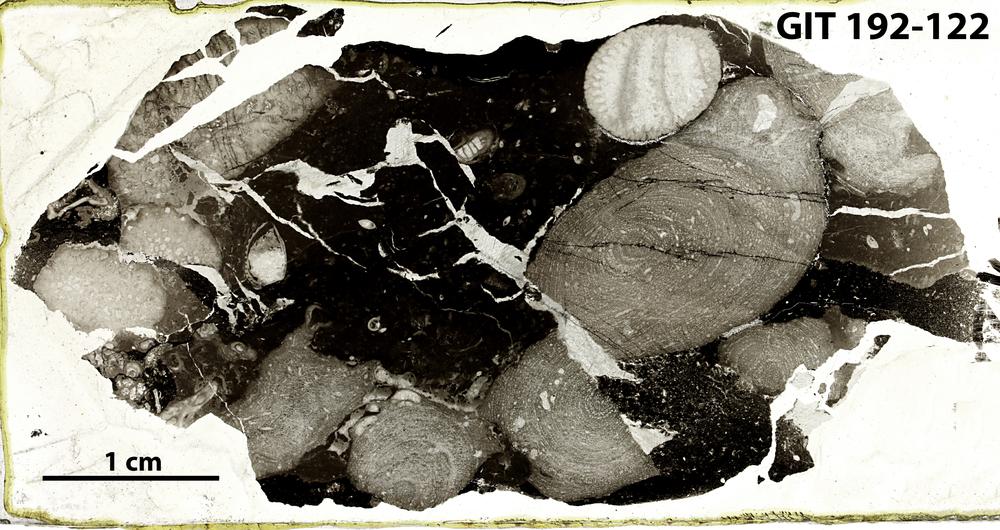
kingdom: Animalia
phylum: Porifera
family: Clathrodictyidae
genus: Clathrodictyon
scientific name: Clathrodictyon
